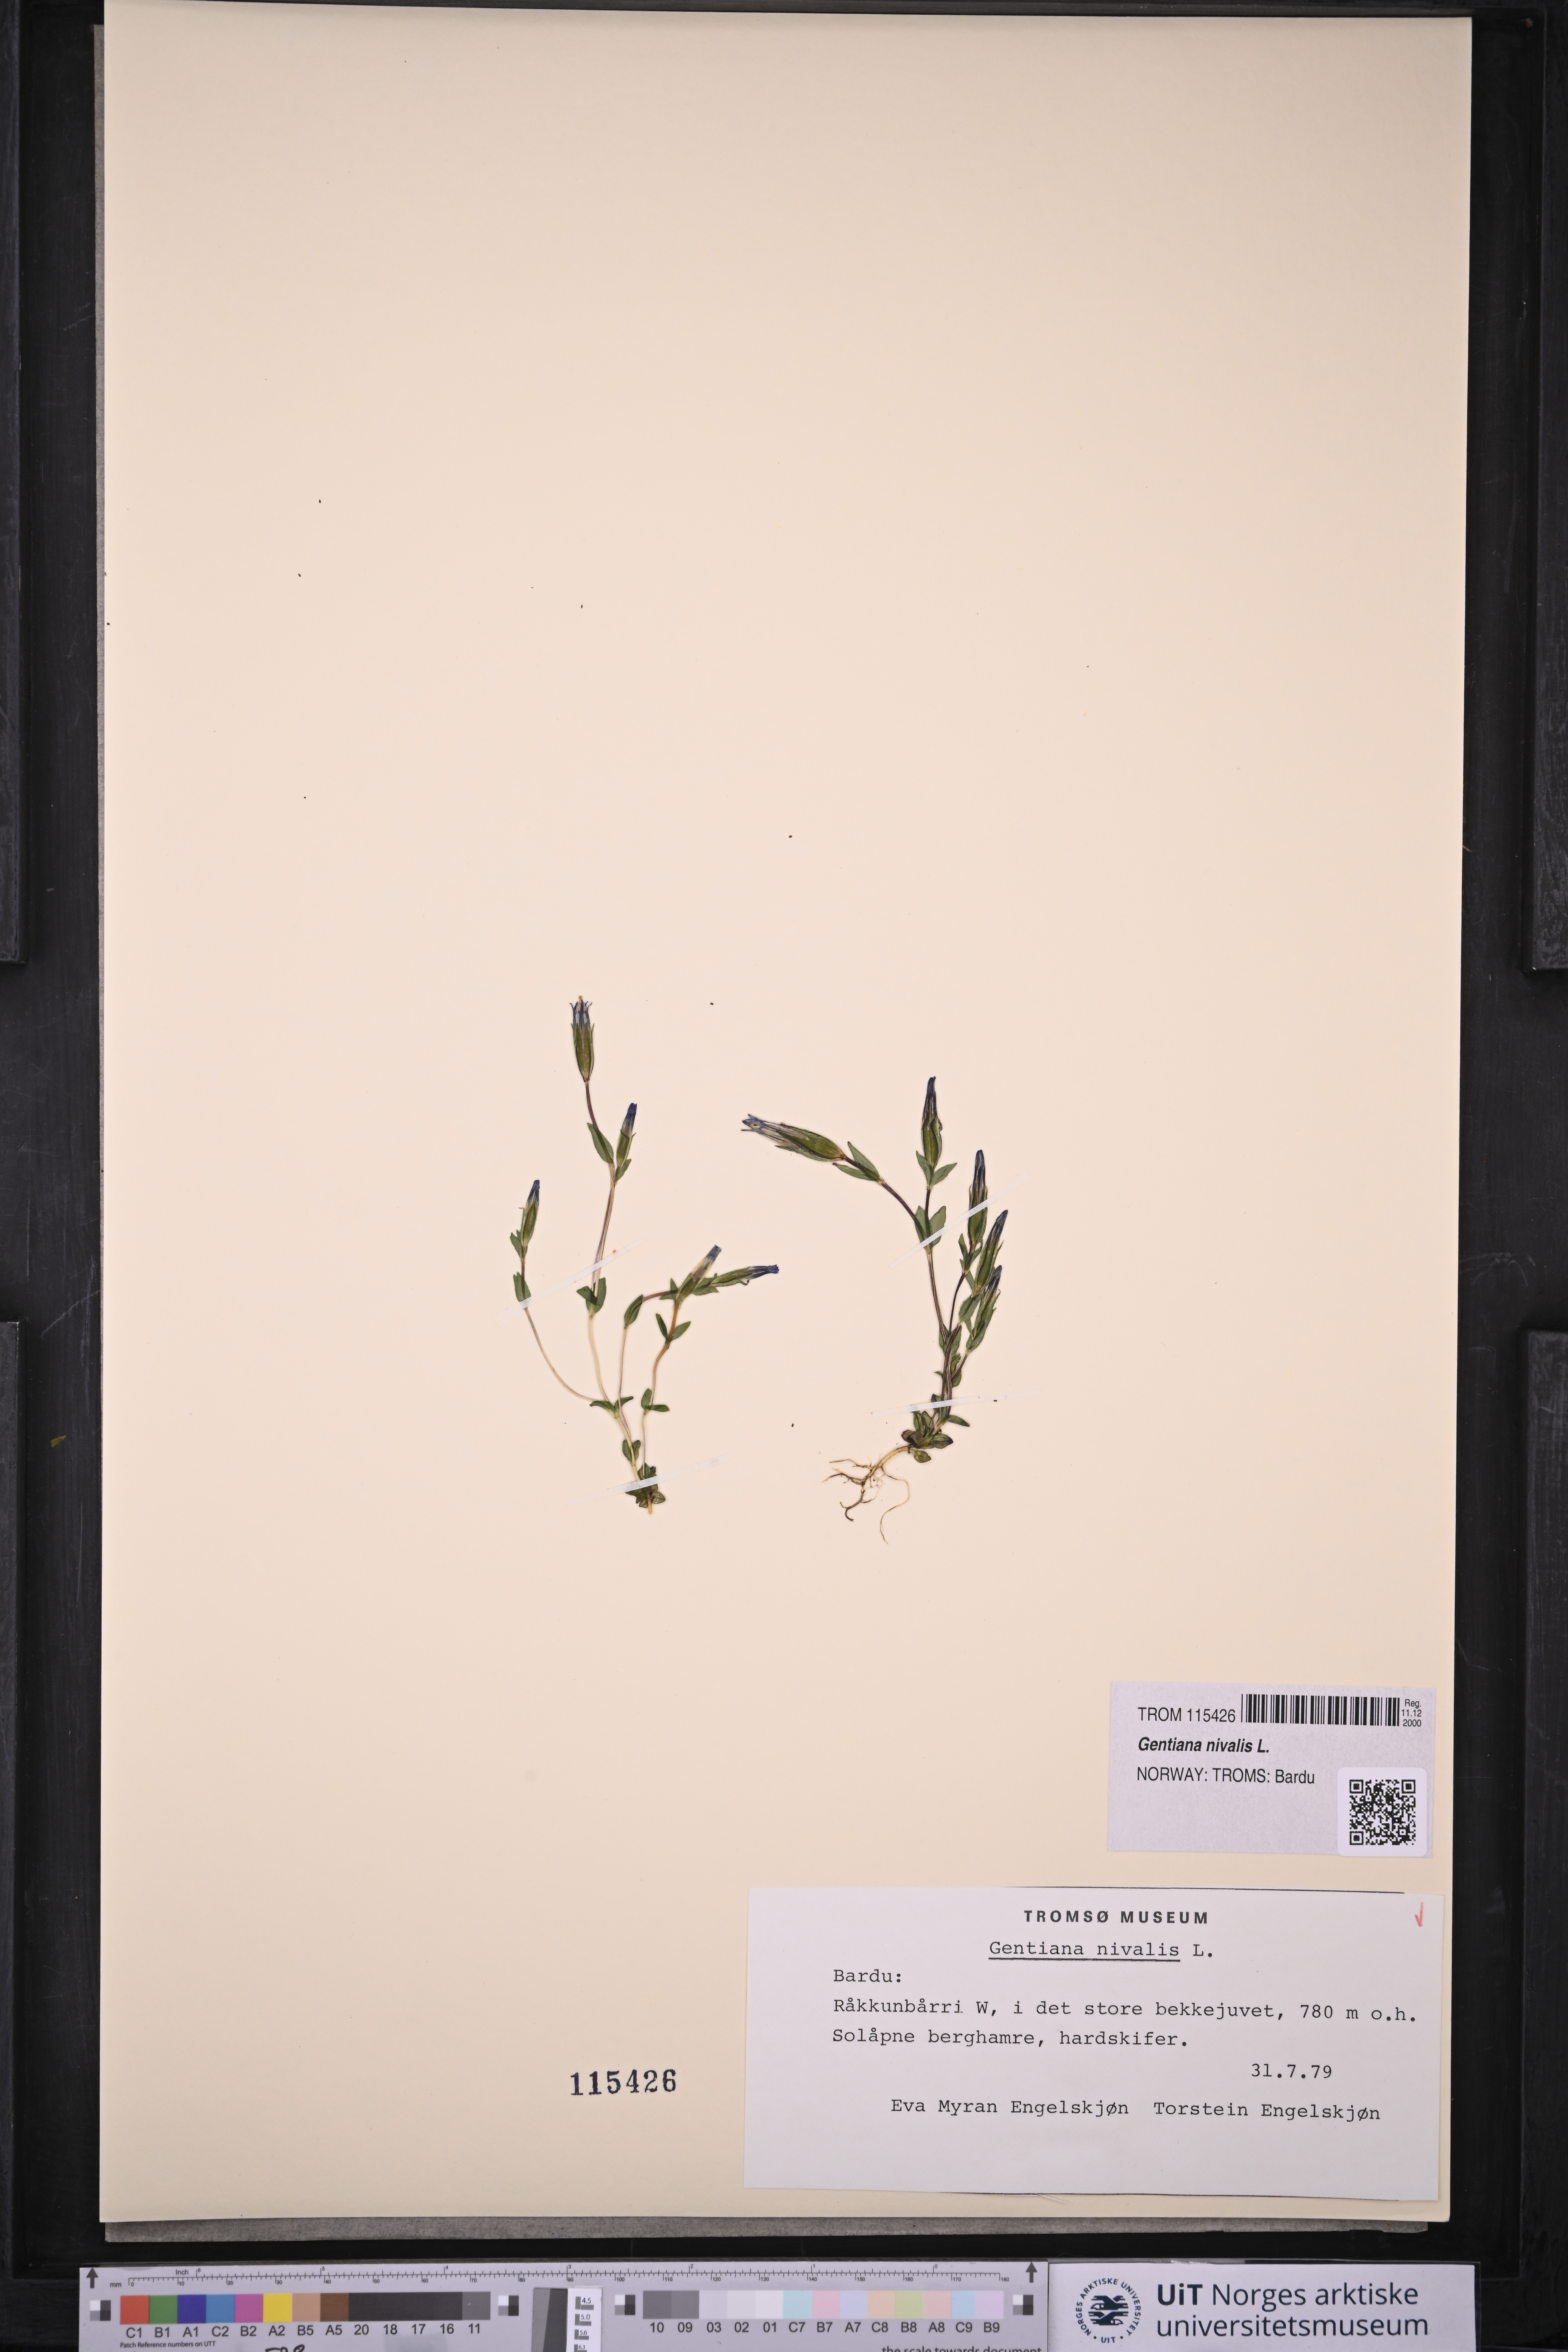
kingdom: Plantae
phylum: Tracheophyta
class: Magnoliopsida
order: Gentianales
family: Gentianaceae
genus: Gentiana
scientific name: Gentiana nivalis
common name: Alpine gentian
